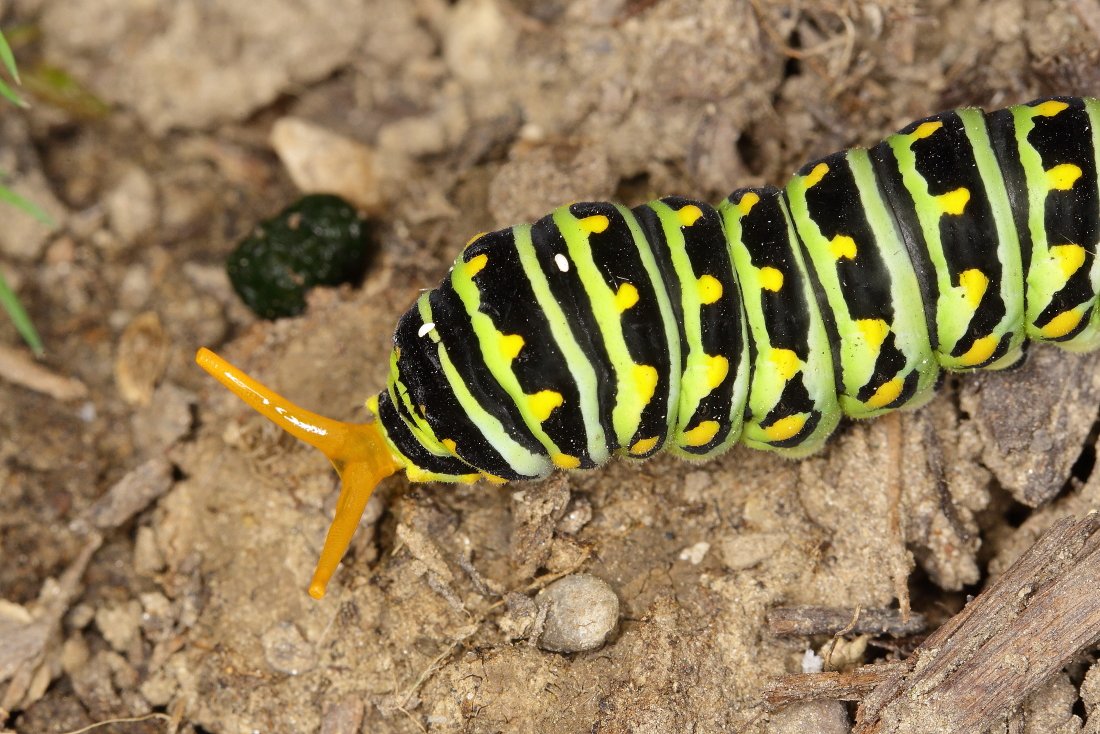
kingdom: Animalia
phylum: Arthropoda
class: Insecta
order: Lepidoptera
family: Papilionidae
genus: Papilio
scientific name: Papilio polyxenes
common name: Black Swallowtail
